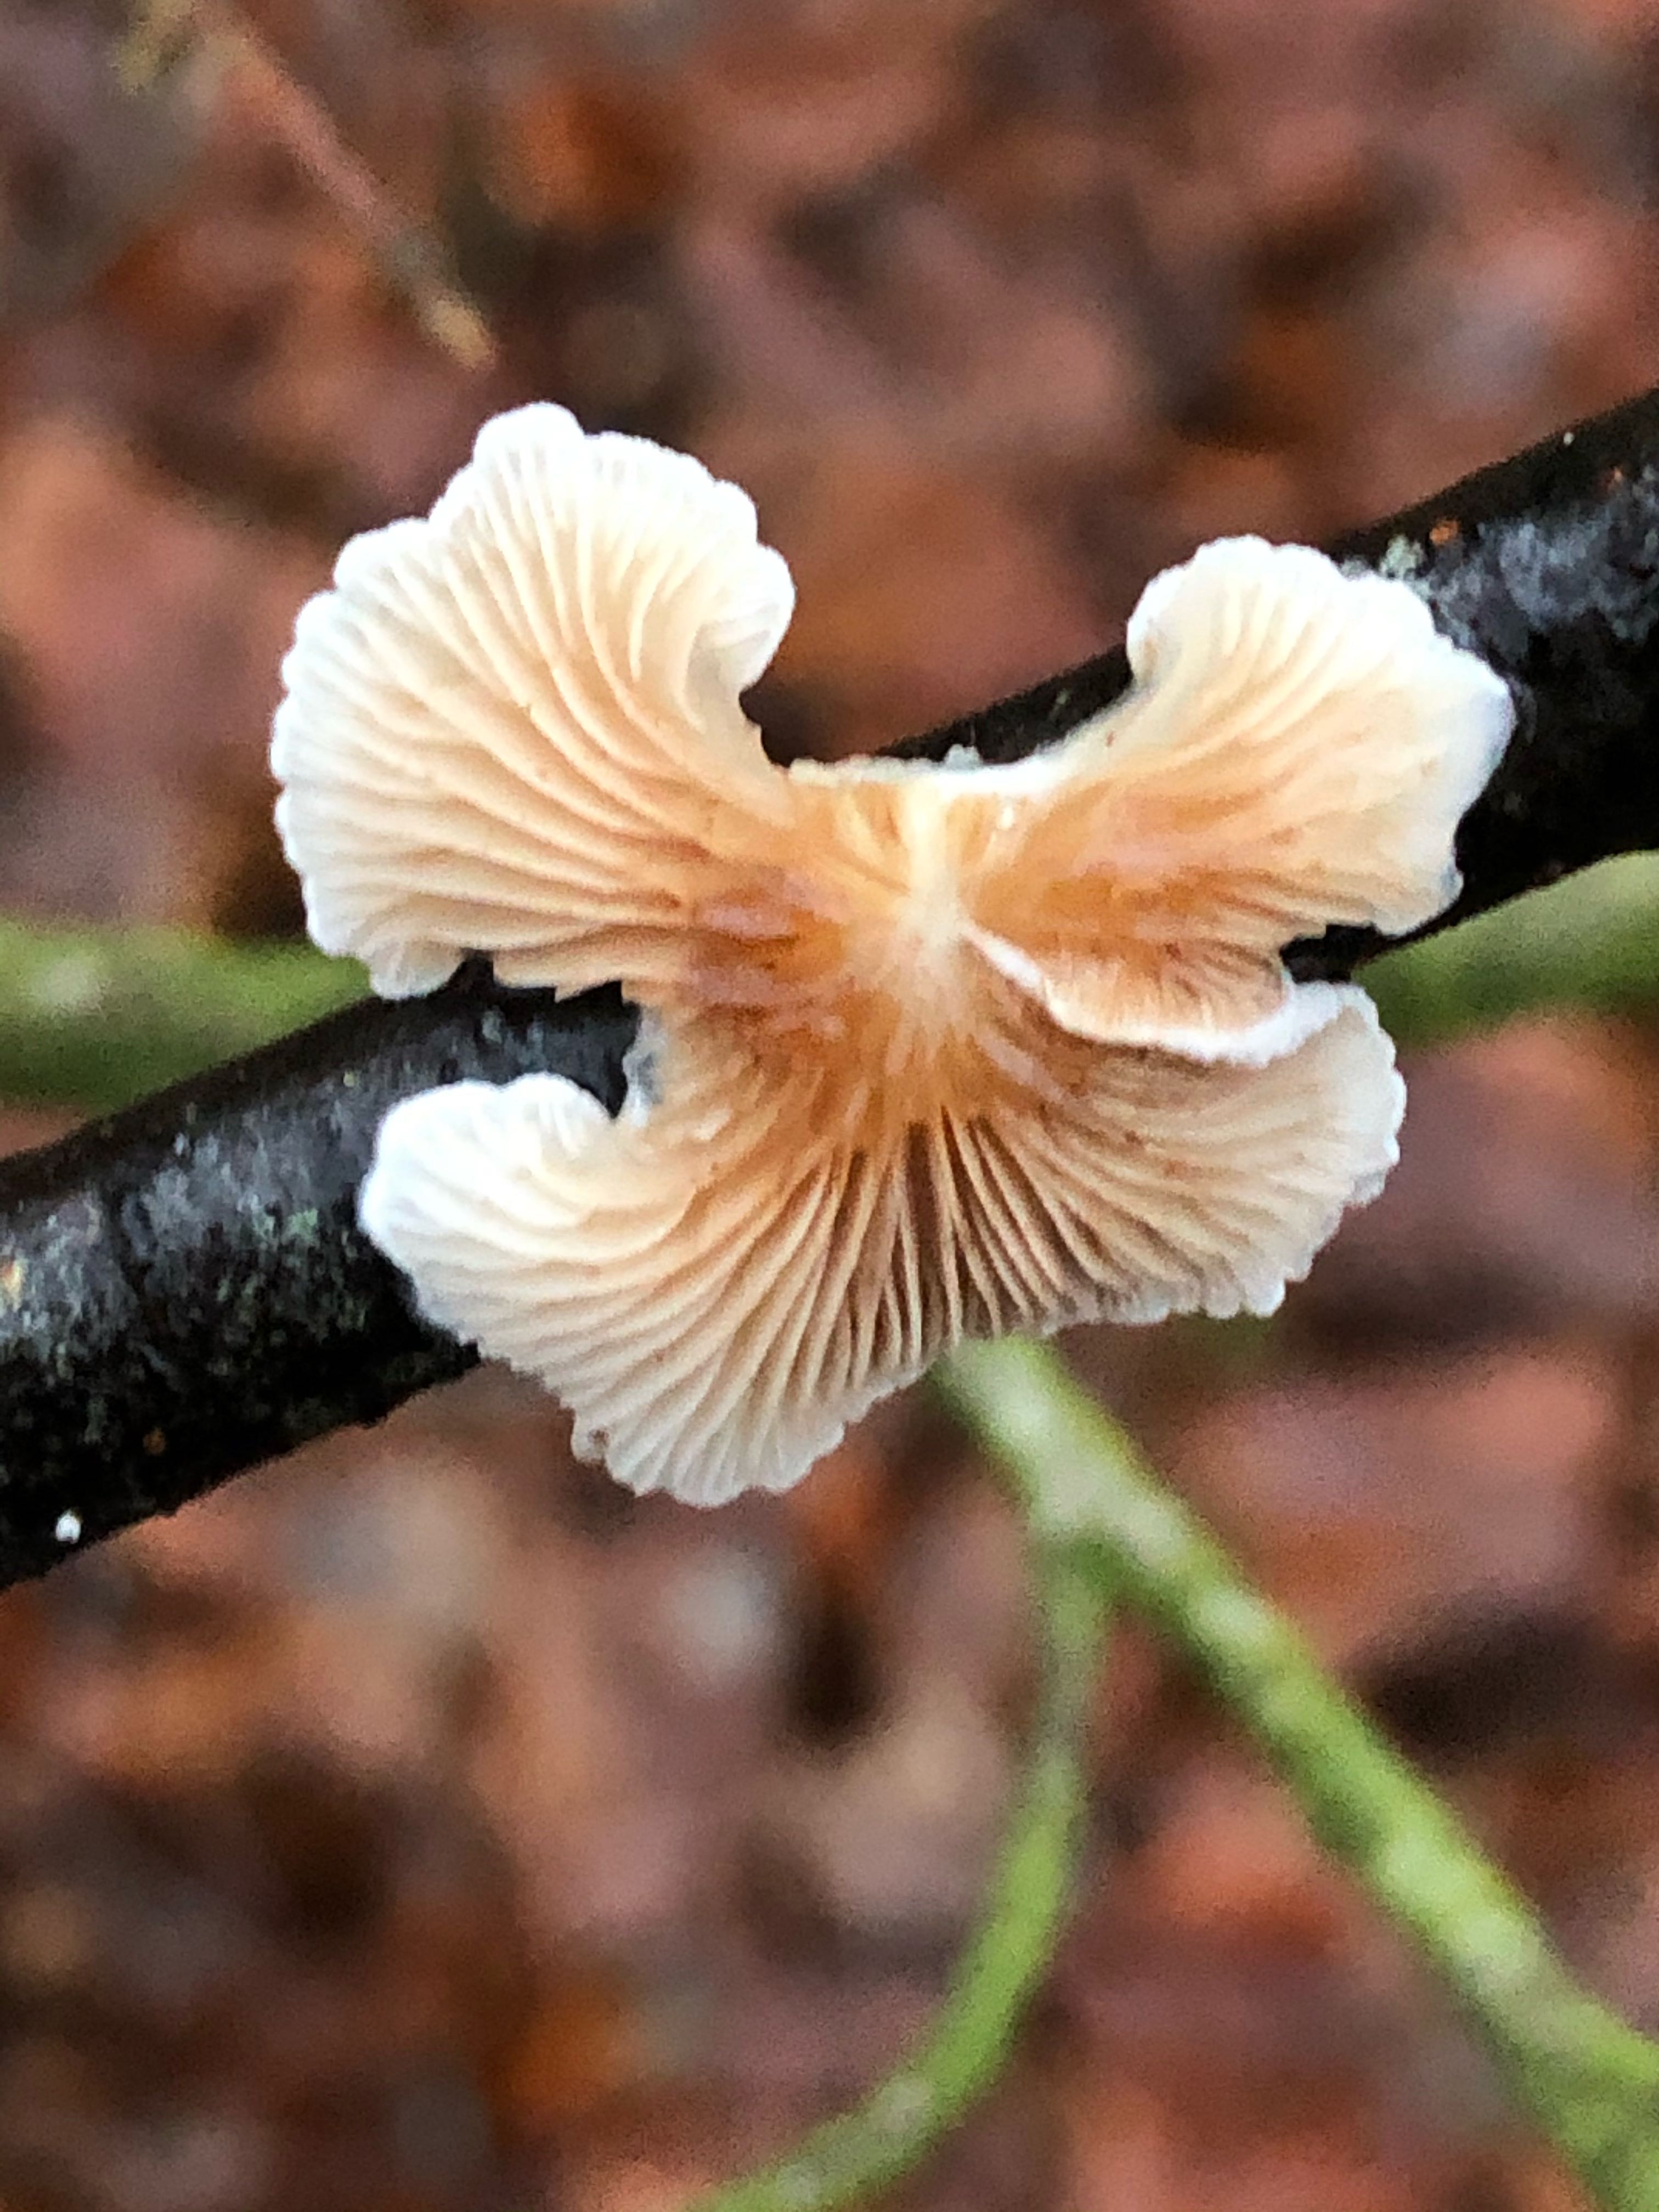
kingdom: Fungi
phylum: Basidiomycota
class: Agaricomycetes
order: Agaricales
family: Crepidotaceae
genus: Crepidotus
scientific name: Crepidotus
